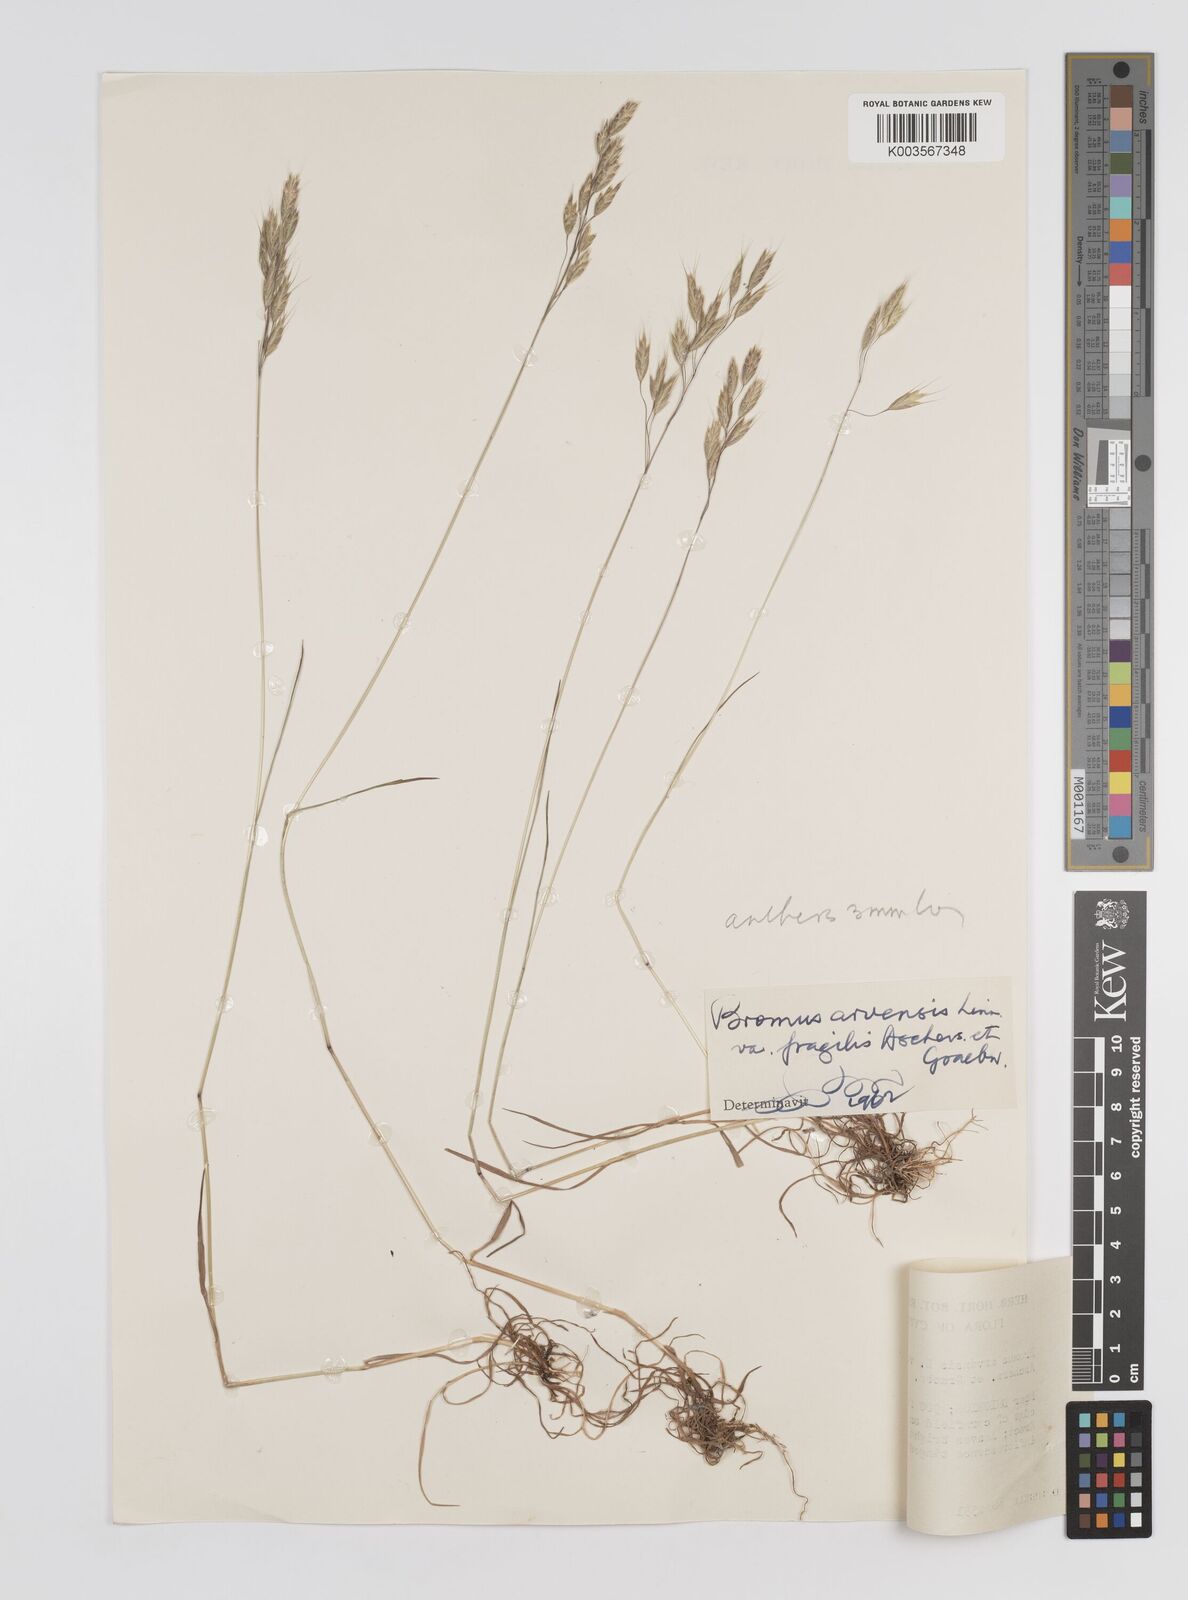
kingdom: Plantae
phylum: Tracheophyta
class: Liliopsida
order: Poales
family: Poaceae
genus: Bromus
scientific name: Bromus arvensis
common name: Field brome
